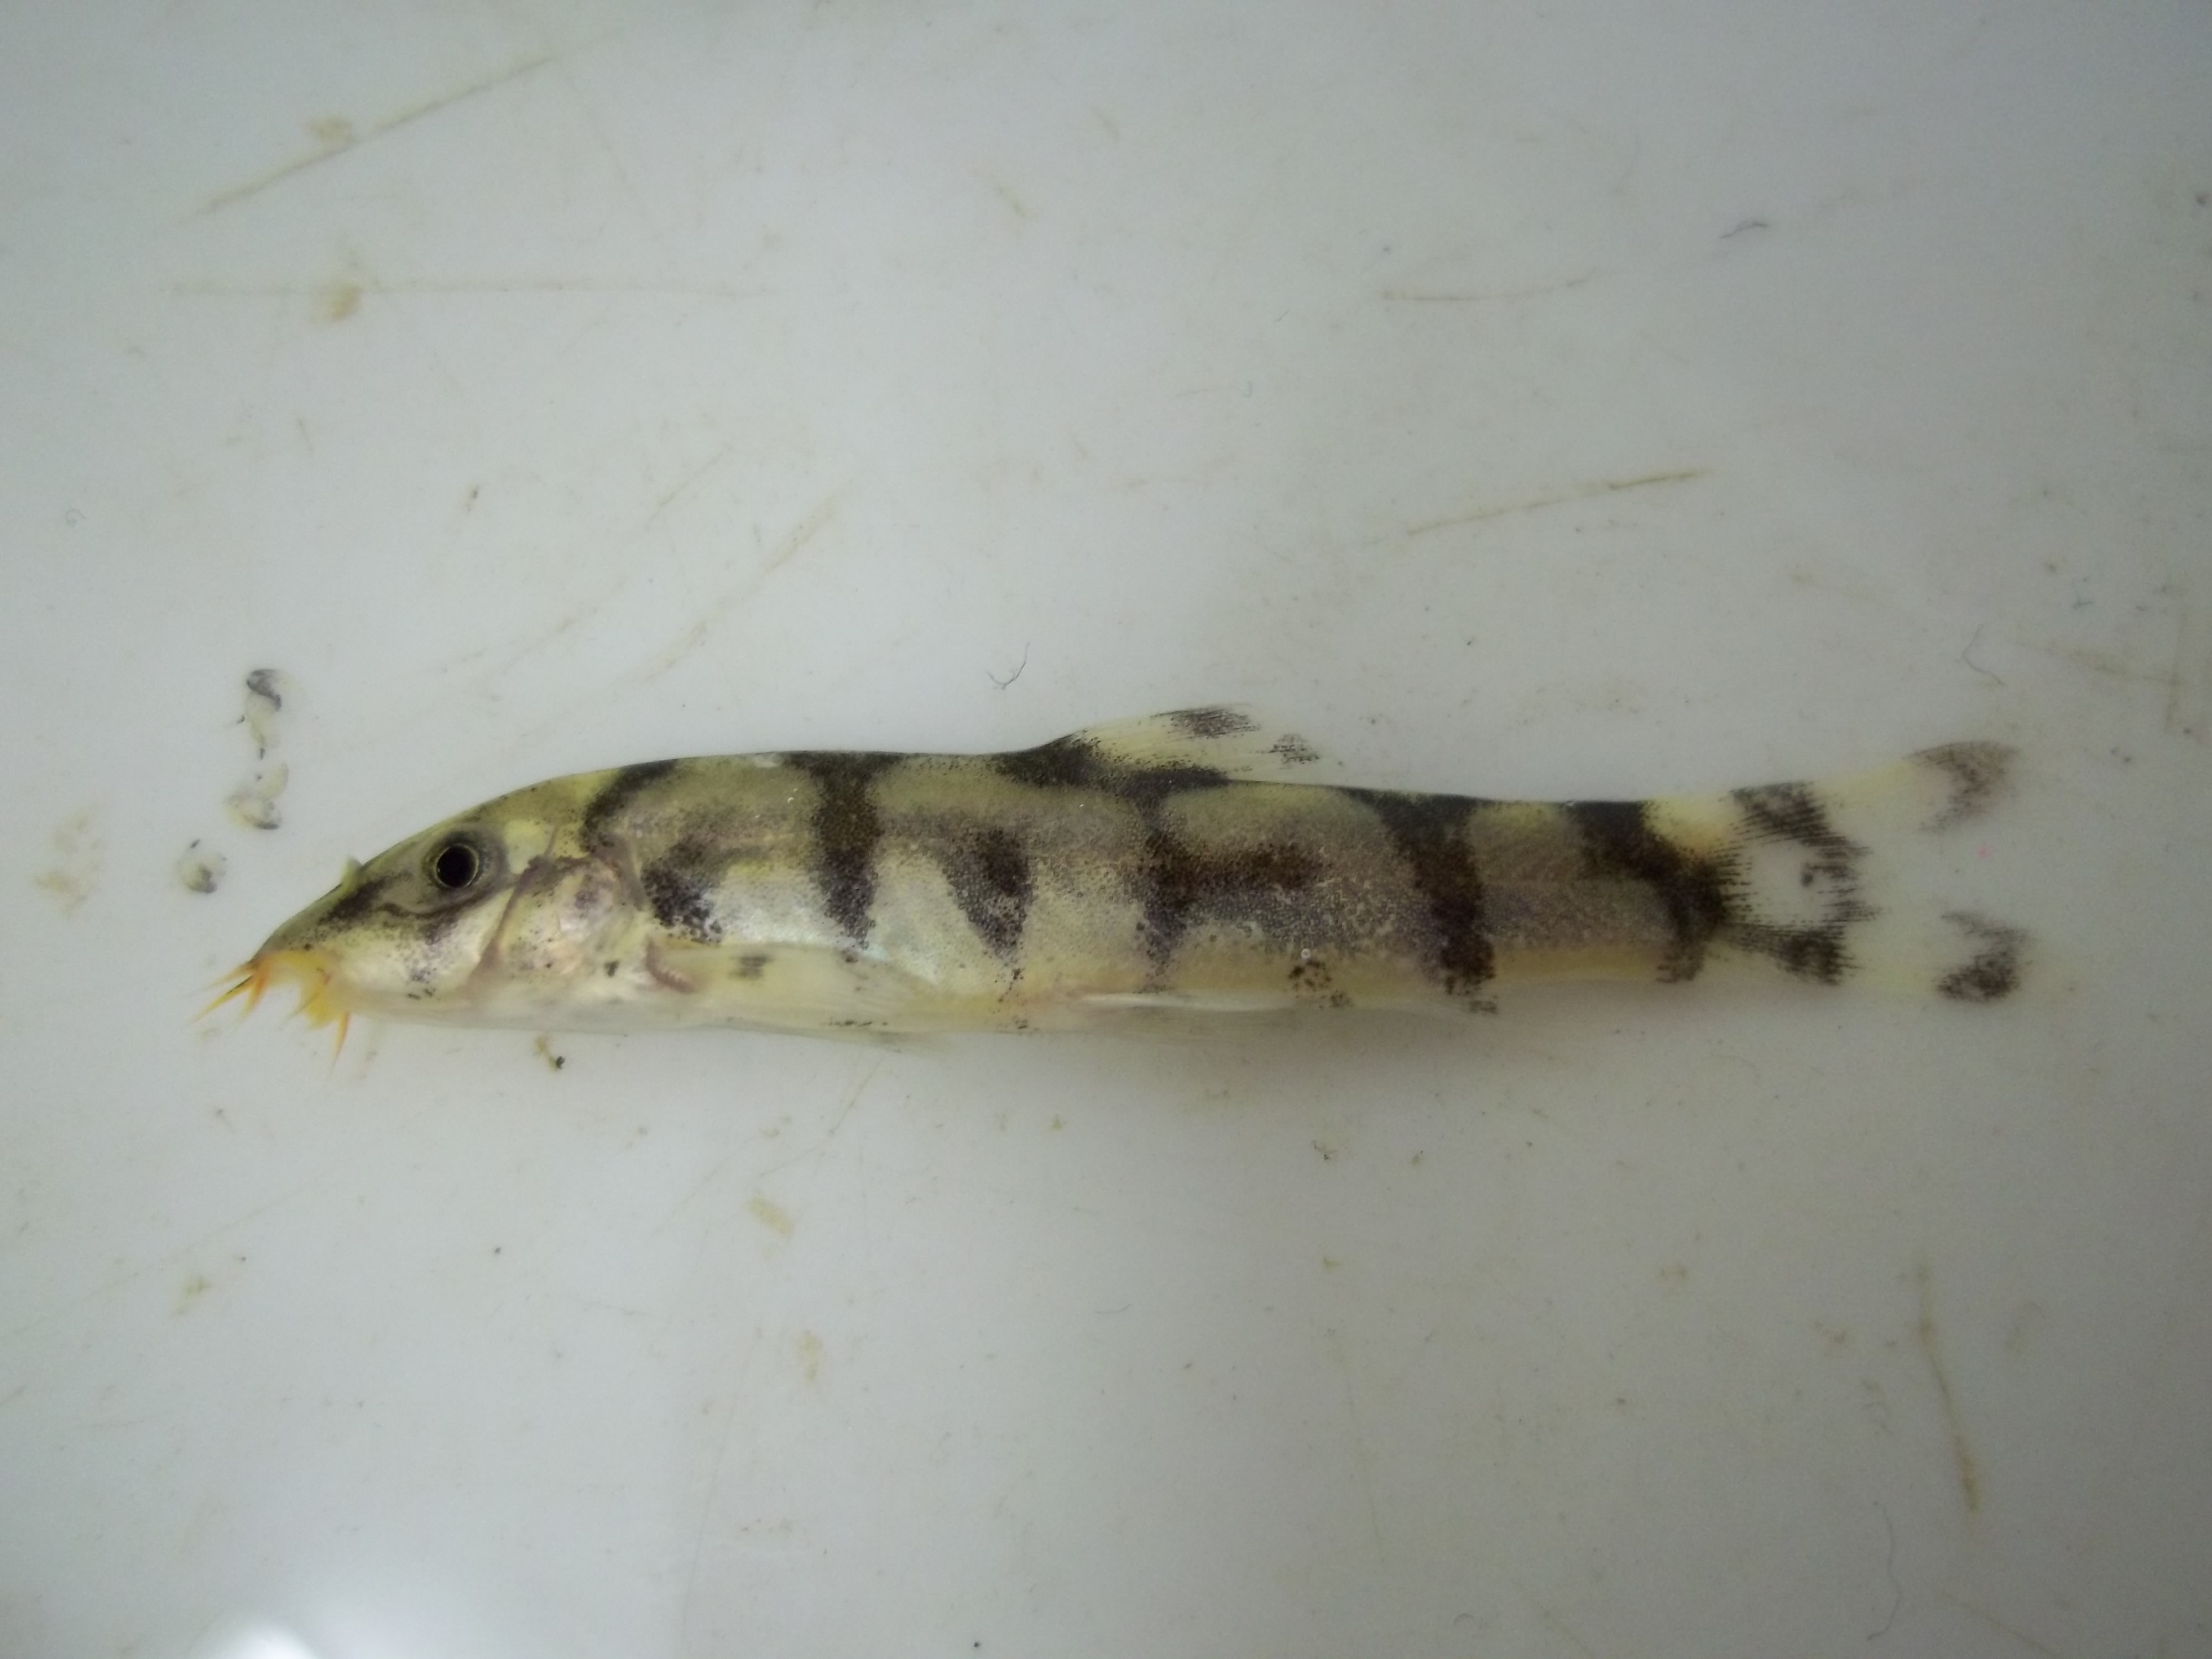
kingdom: Animalia
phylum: Chordata
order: Cypriniformes
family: Cobitidae
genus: Botia
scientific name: Botia almorhae
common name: Yoyo
